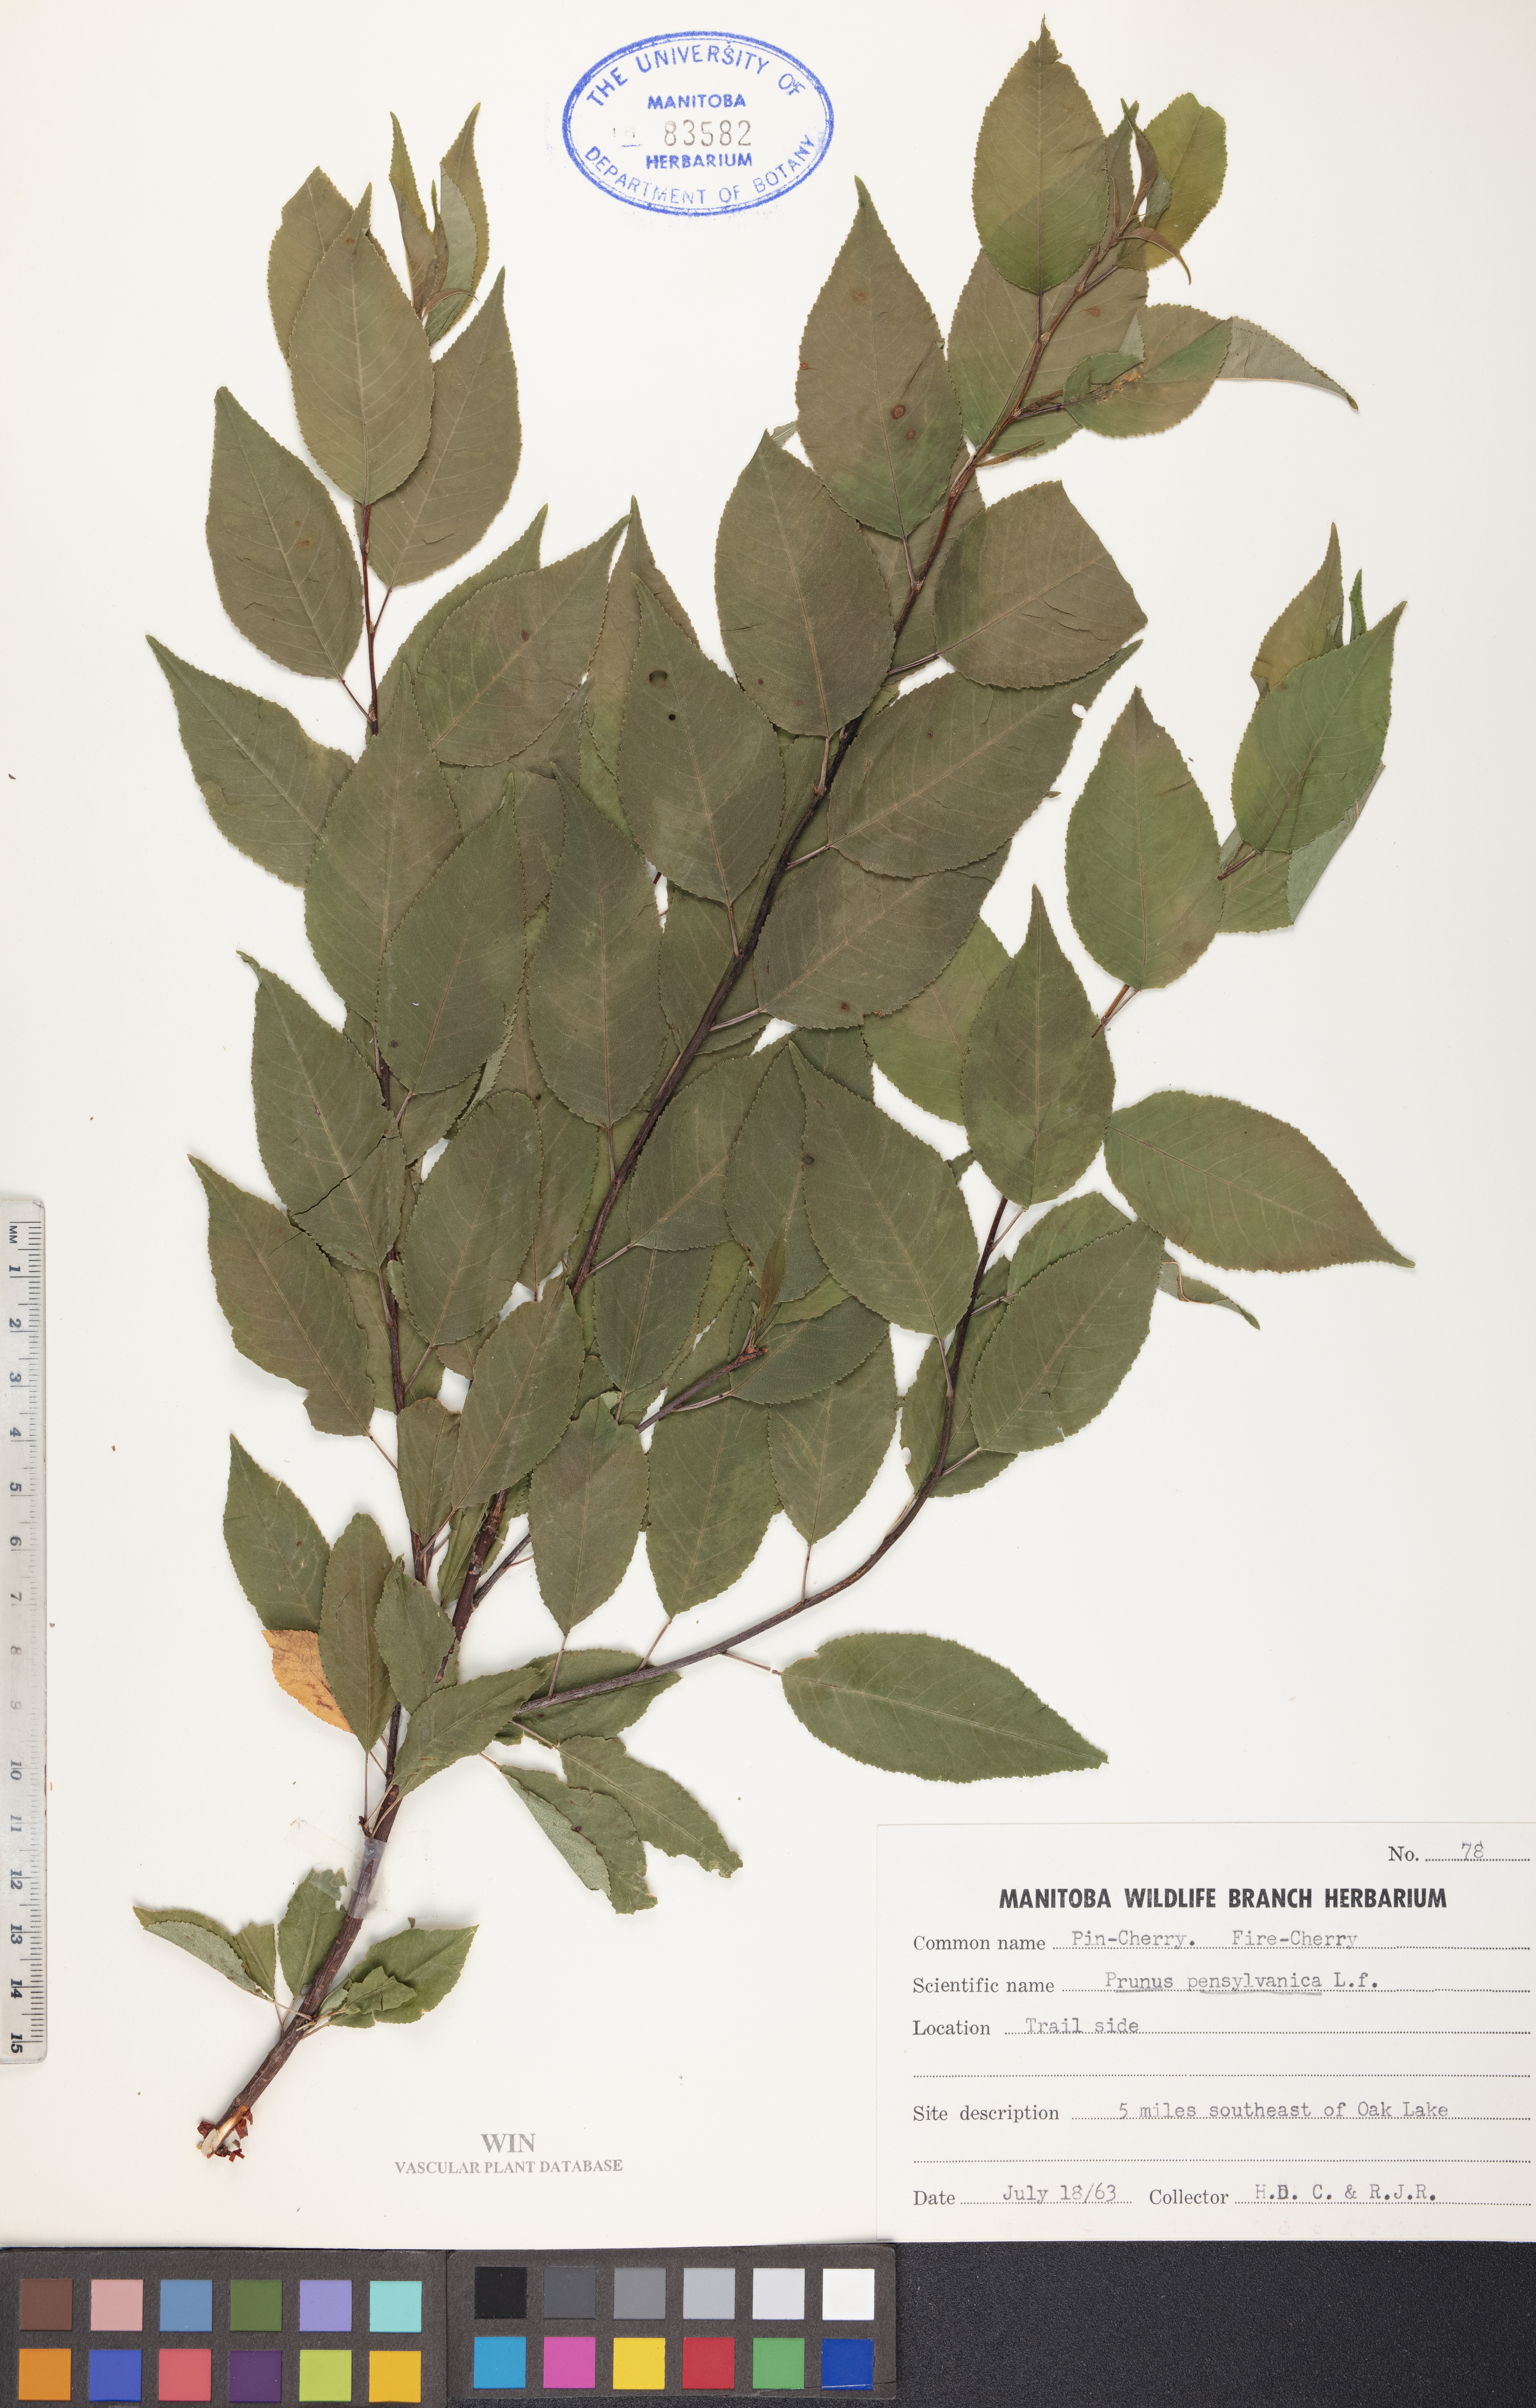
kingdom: Plantae
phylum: Tracheophyta
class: Magnoliopsida
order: Rosales
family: Rosaceae
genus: Prunus
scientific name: Prunus pensylvanica
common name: Pin cherry
